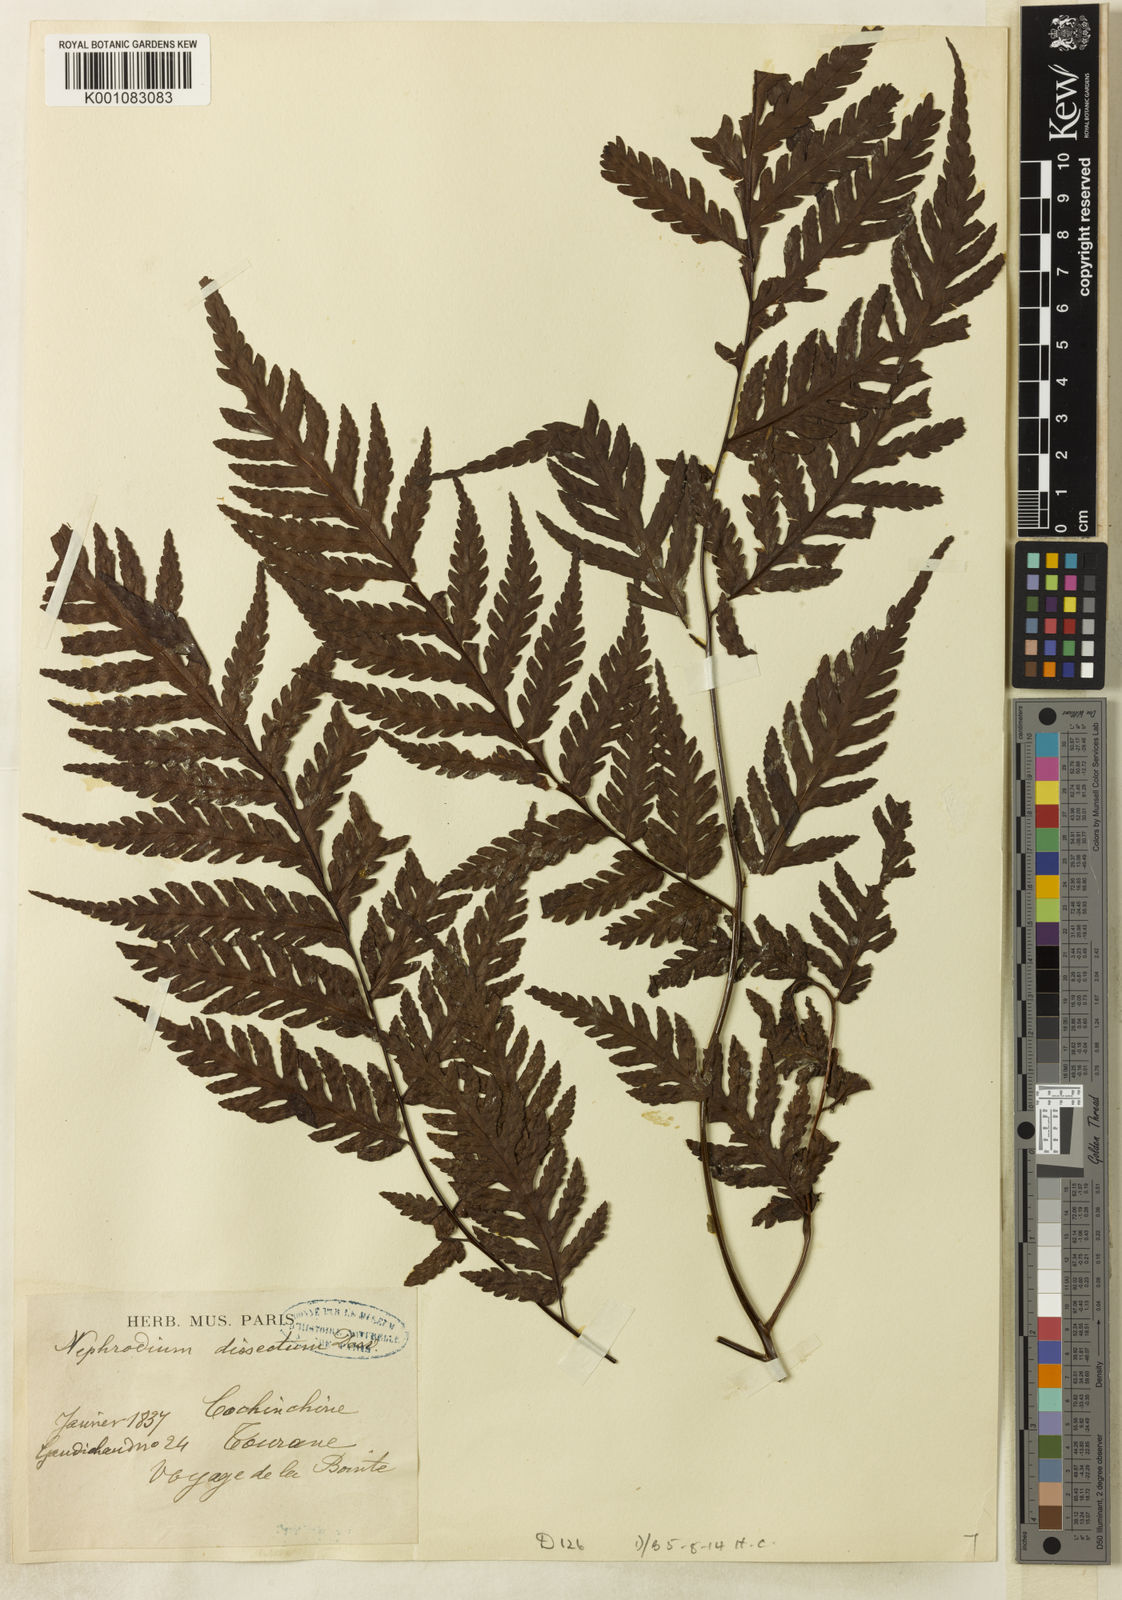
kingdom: Plantae
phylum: Tracheophyta
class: Polypodiopsida
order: Polypodiales
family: Tectariaceae
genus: Tectaria
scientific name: Tectaria
